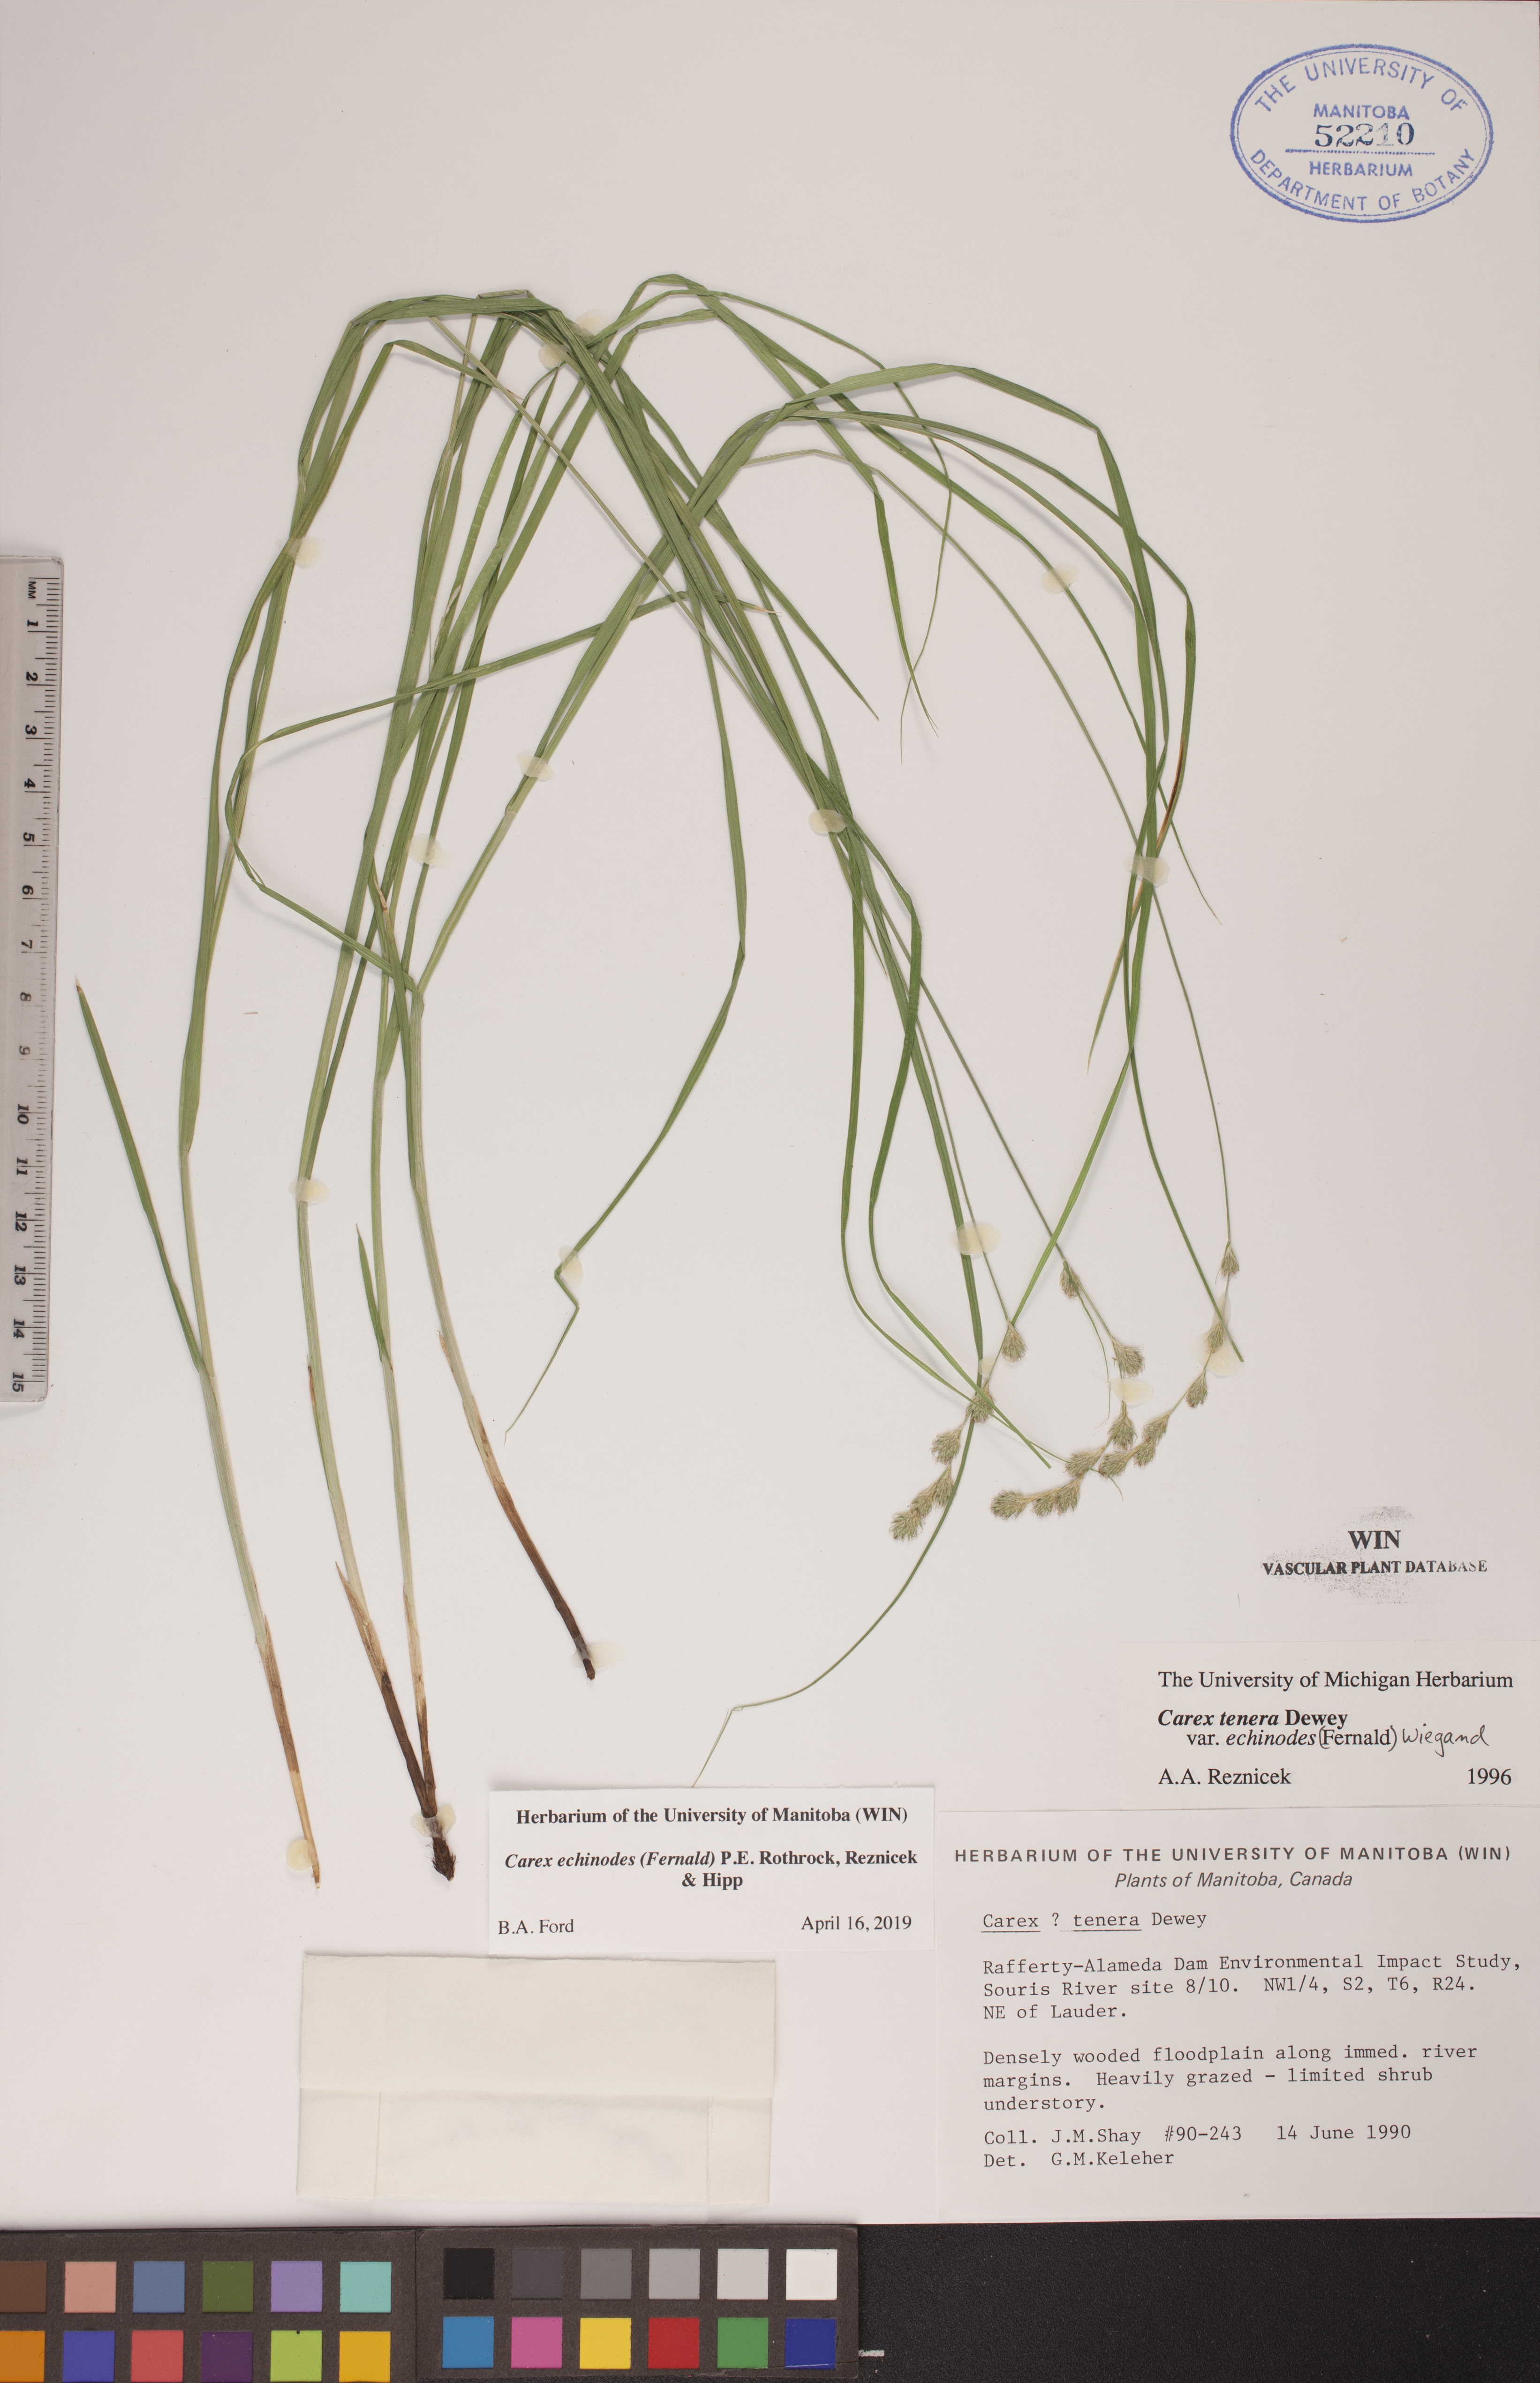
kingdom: Plantae
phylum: Tracheophyta
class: Liliopsida
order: Poales
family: Cyperaceae
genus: Carex
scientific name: Carex echinodes
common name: Marsh straw sedge
